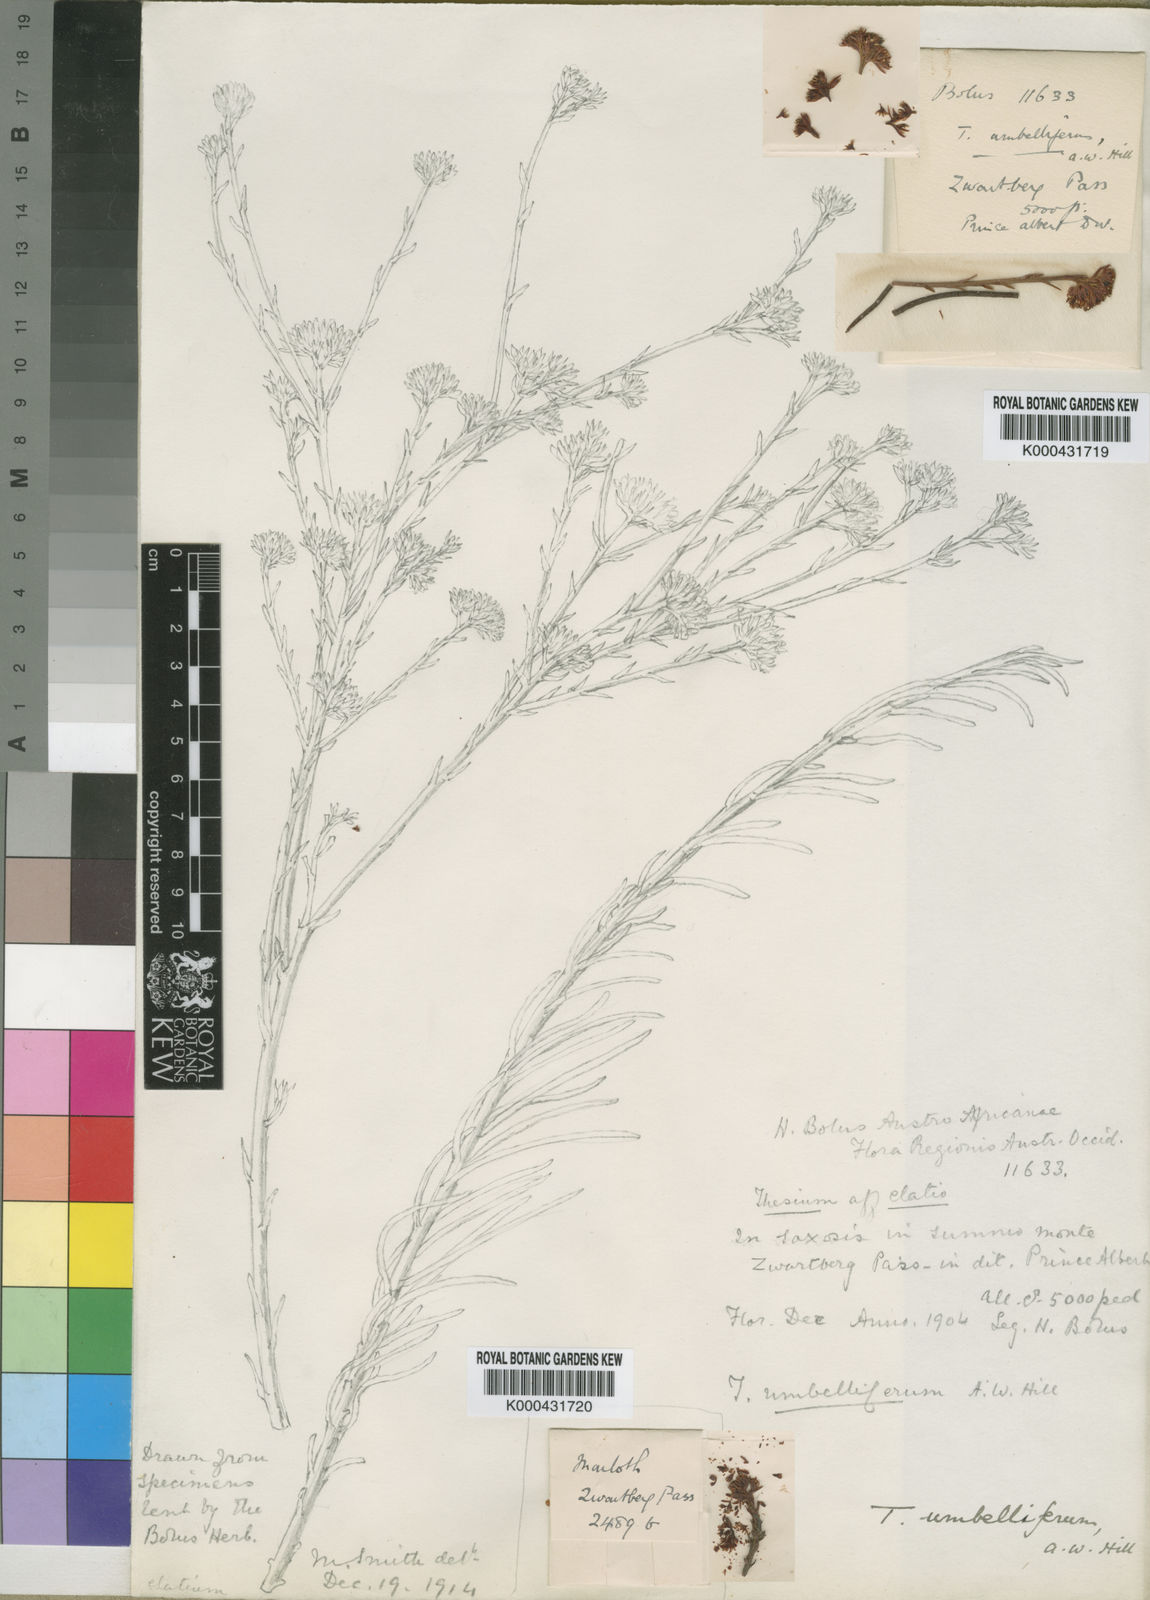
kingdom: Plantae
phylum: Tracheophyta
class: Magnoliopsida
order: Santalales
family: Thesiaceae
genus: Thesium
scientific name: Thesium umbelliferum
